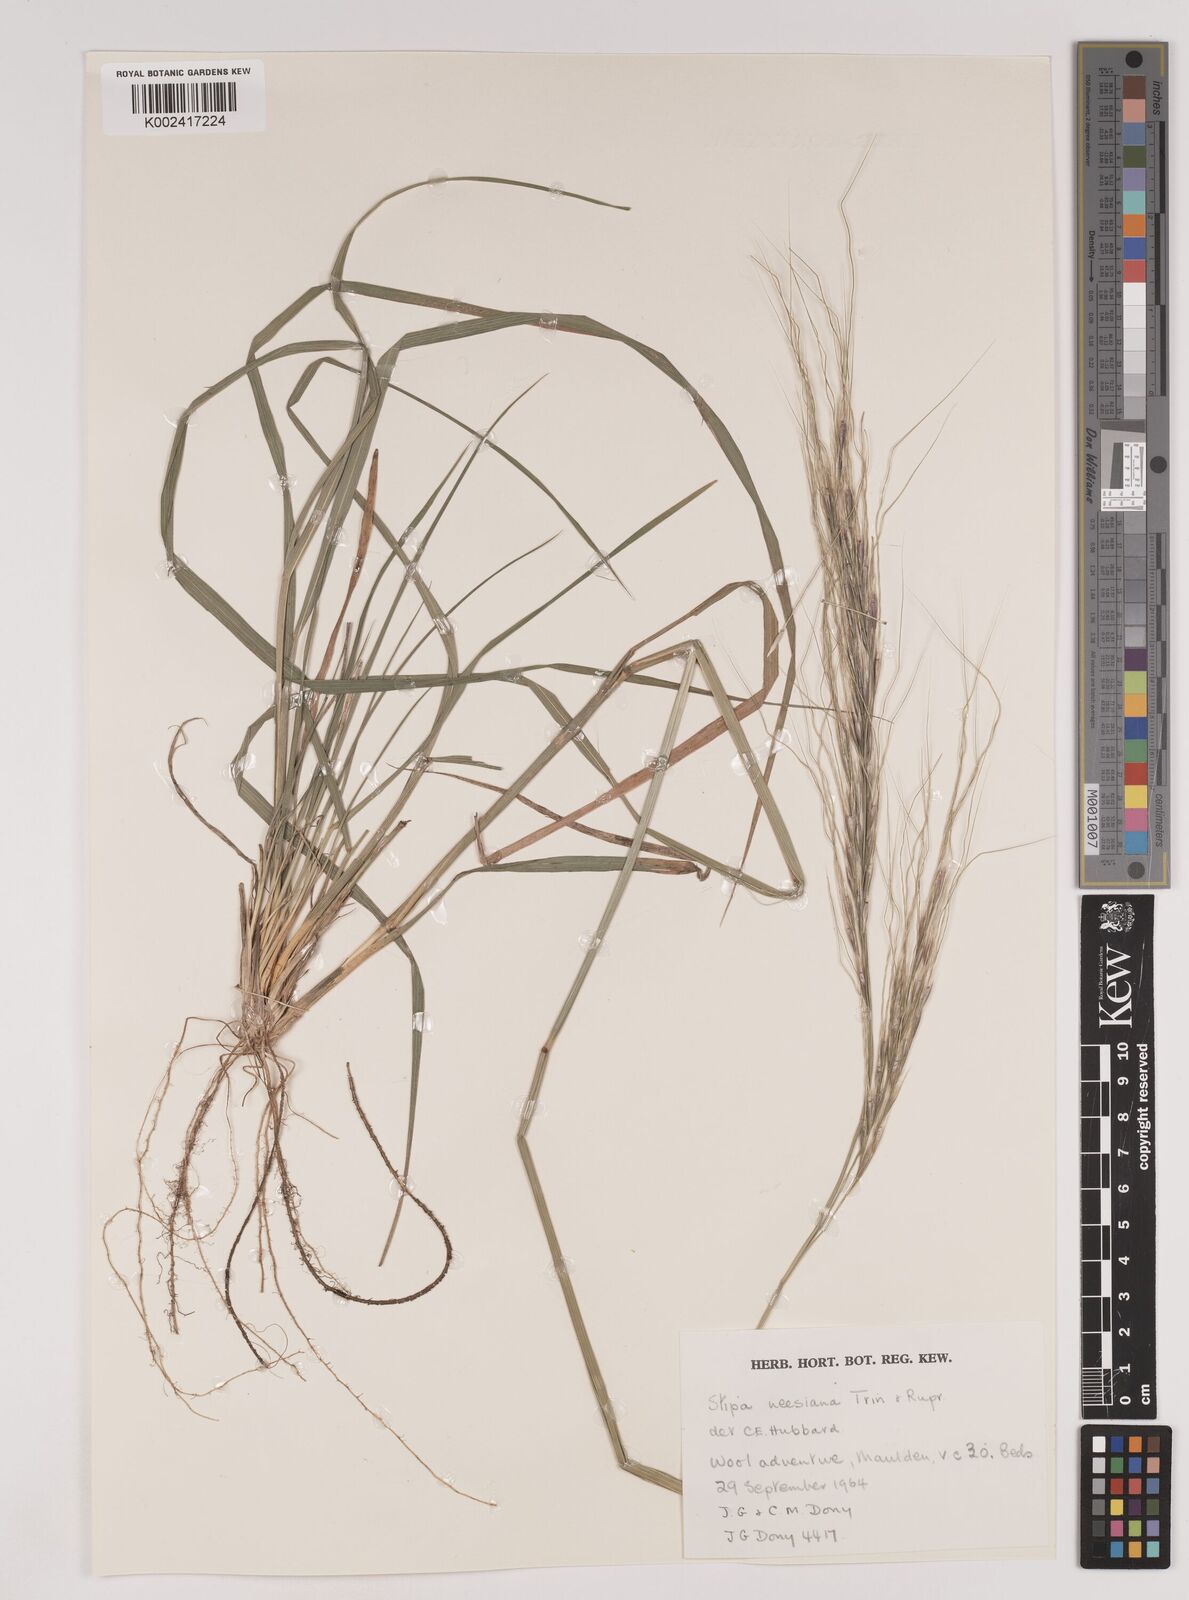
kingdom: Plantae
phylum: Tracheophyta
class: Liliopsida
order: Poales
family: Poaceae
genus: Nassella
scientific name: Nassella neesiana
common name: American needle-grass
